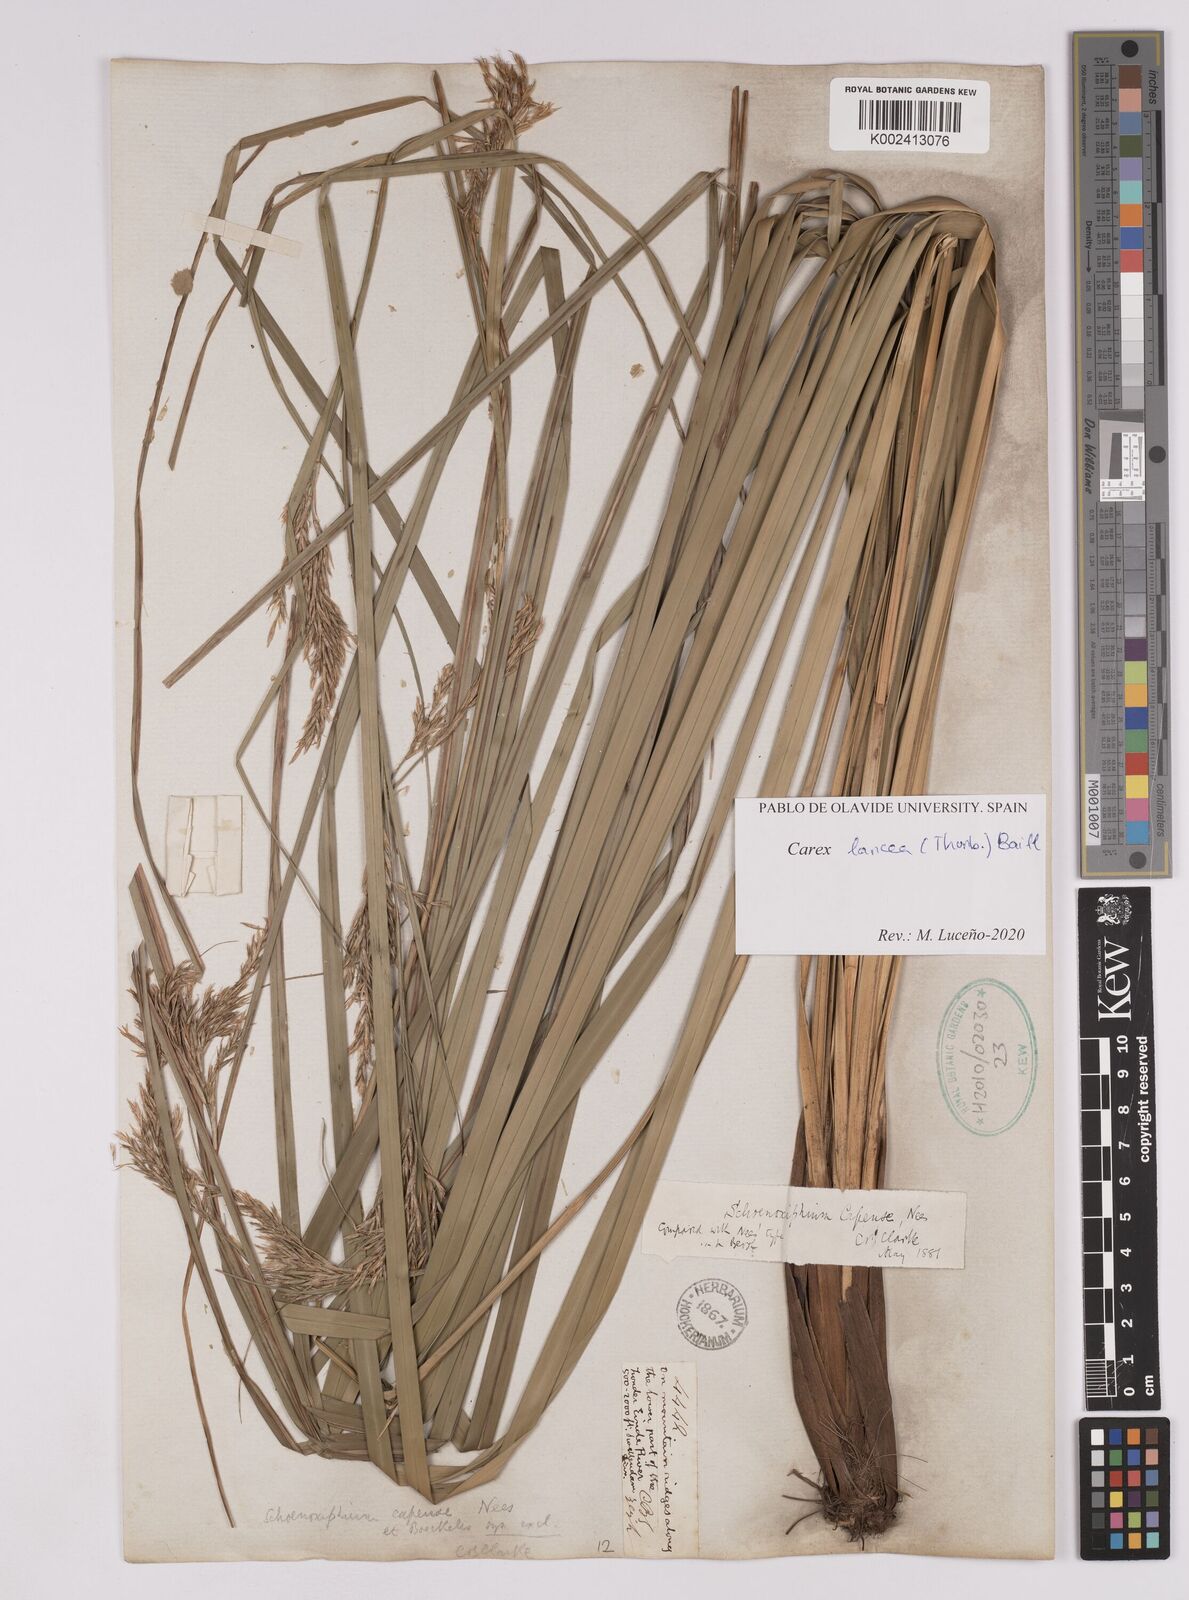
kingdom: Plantae
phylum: Tracheophyta
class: Liliopsida
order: Poales
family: Cyperaceae
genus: Carex
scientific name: Carex lancea
